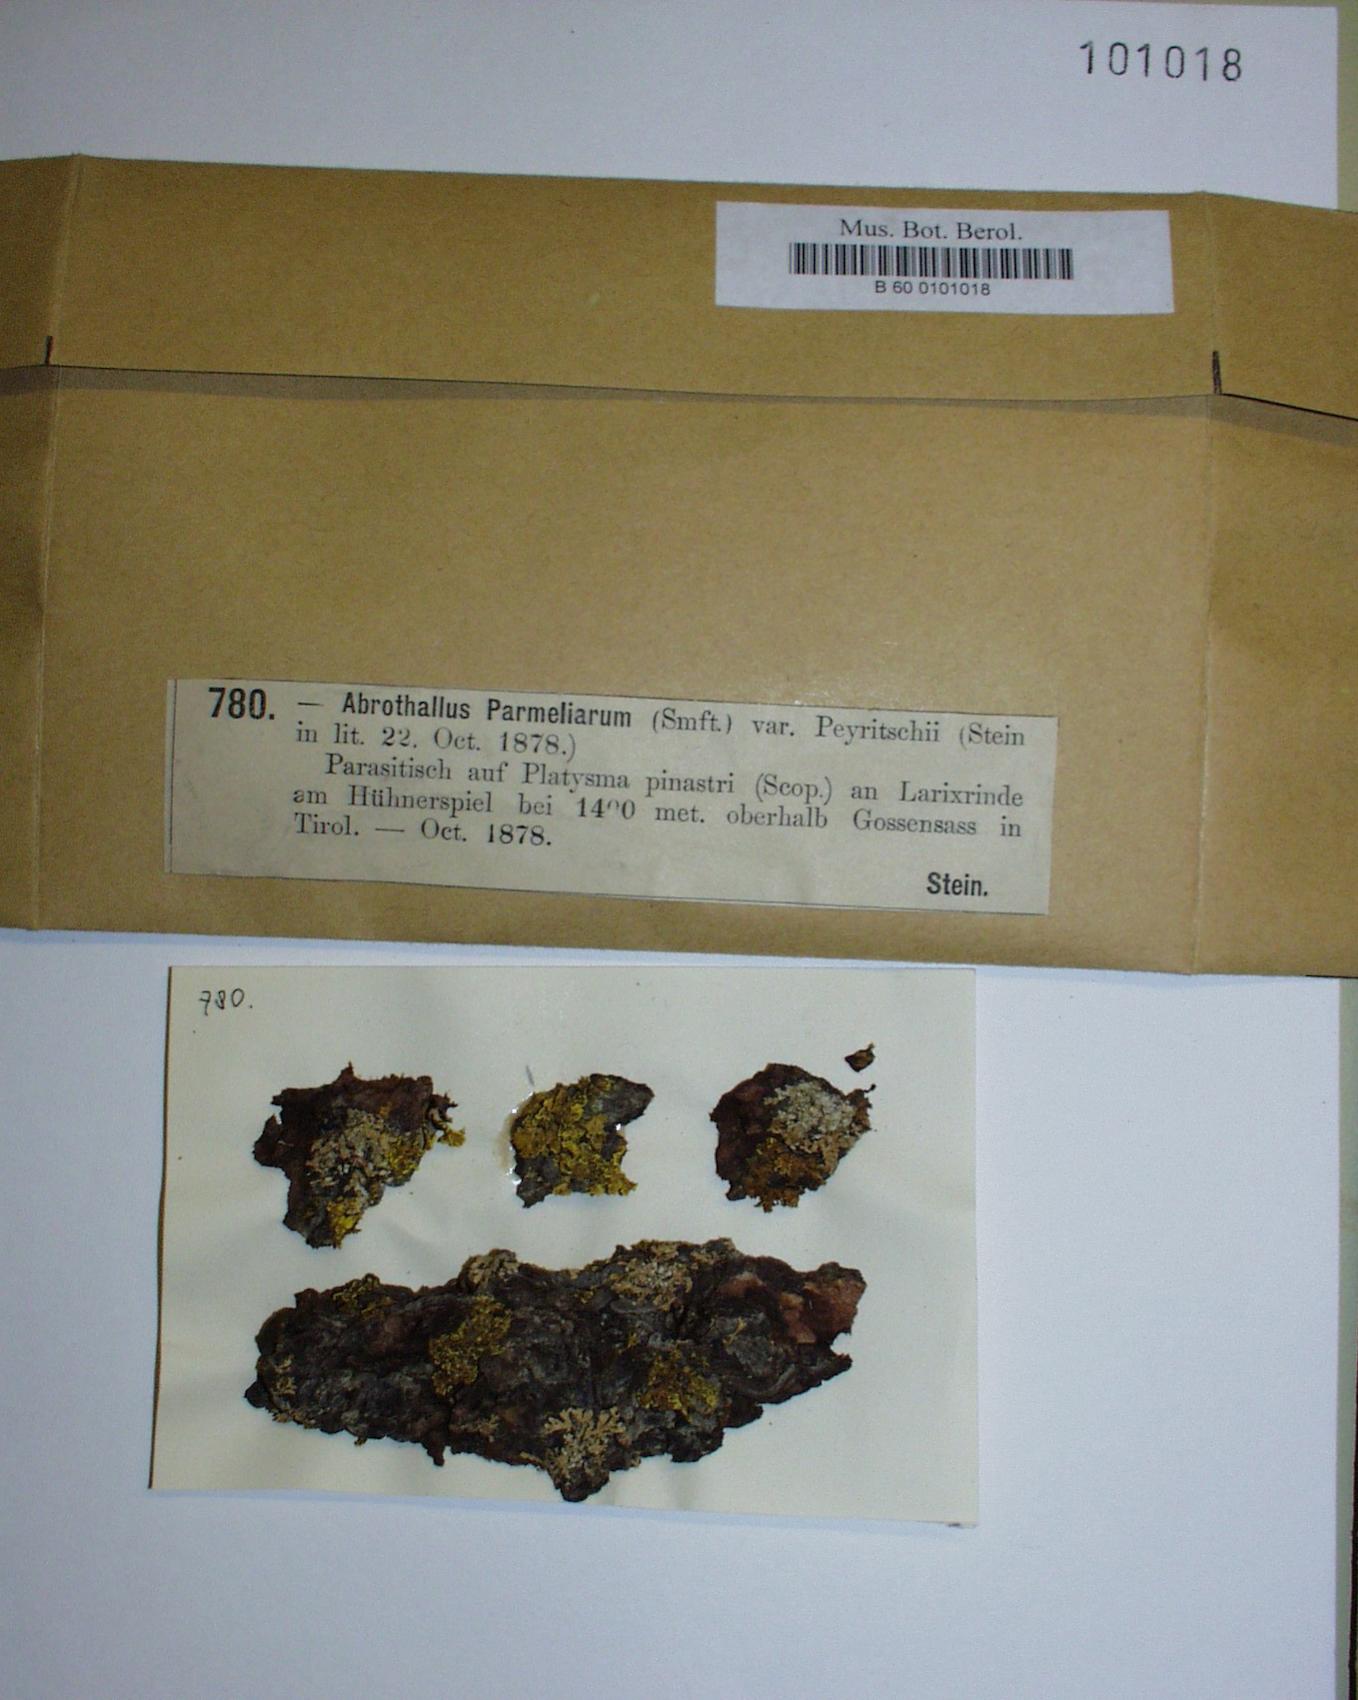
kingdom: Fungi
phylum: Ascomycota
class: Dothideomycetes
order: Abrothallales
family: Abrothallaceae
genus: Abrothallus
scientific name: Abrothallus peyritschii
